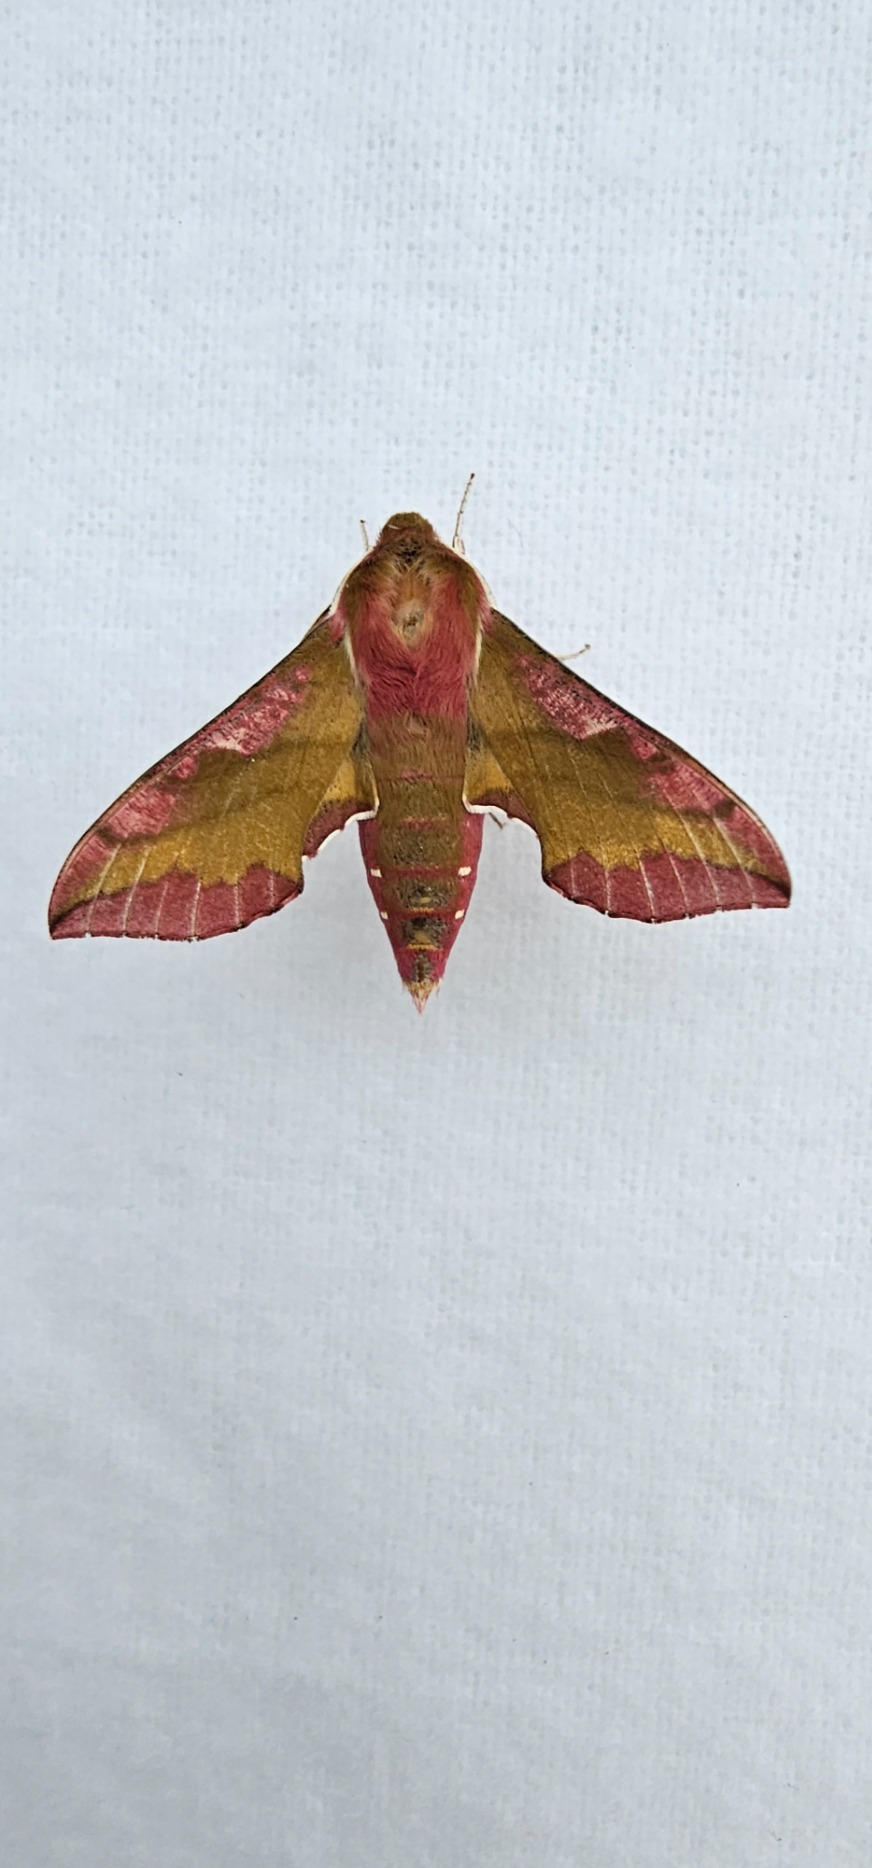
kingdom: Animalia
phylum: Arthropoda
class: Insecta
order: Lepidoptera
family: Sphingidae
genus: Deilephila
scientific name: Deilephila porcellus
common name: Lille vinsværmer
